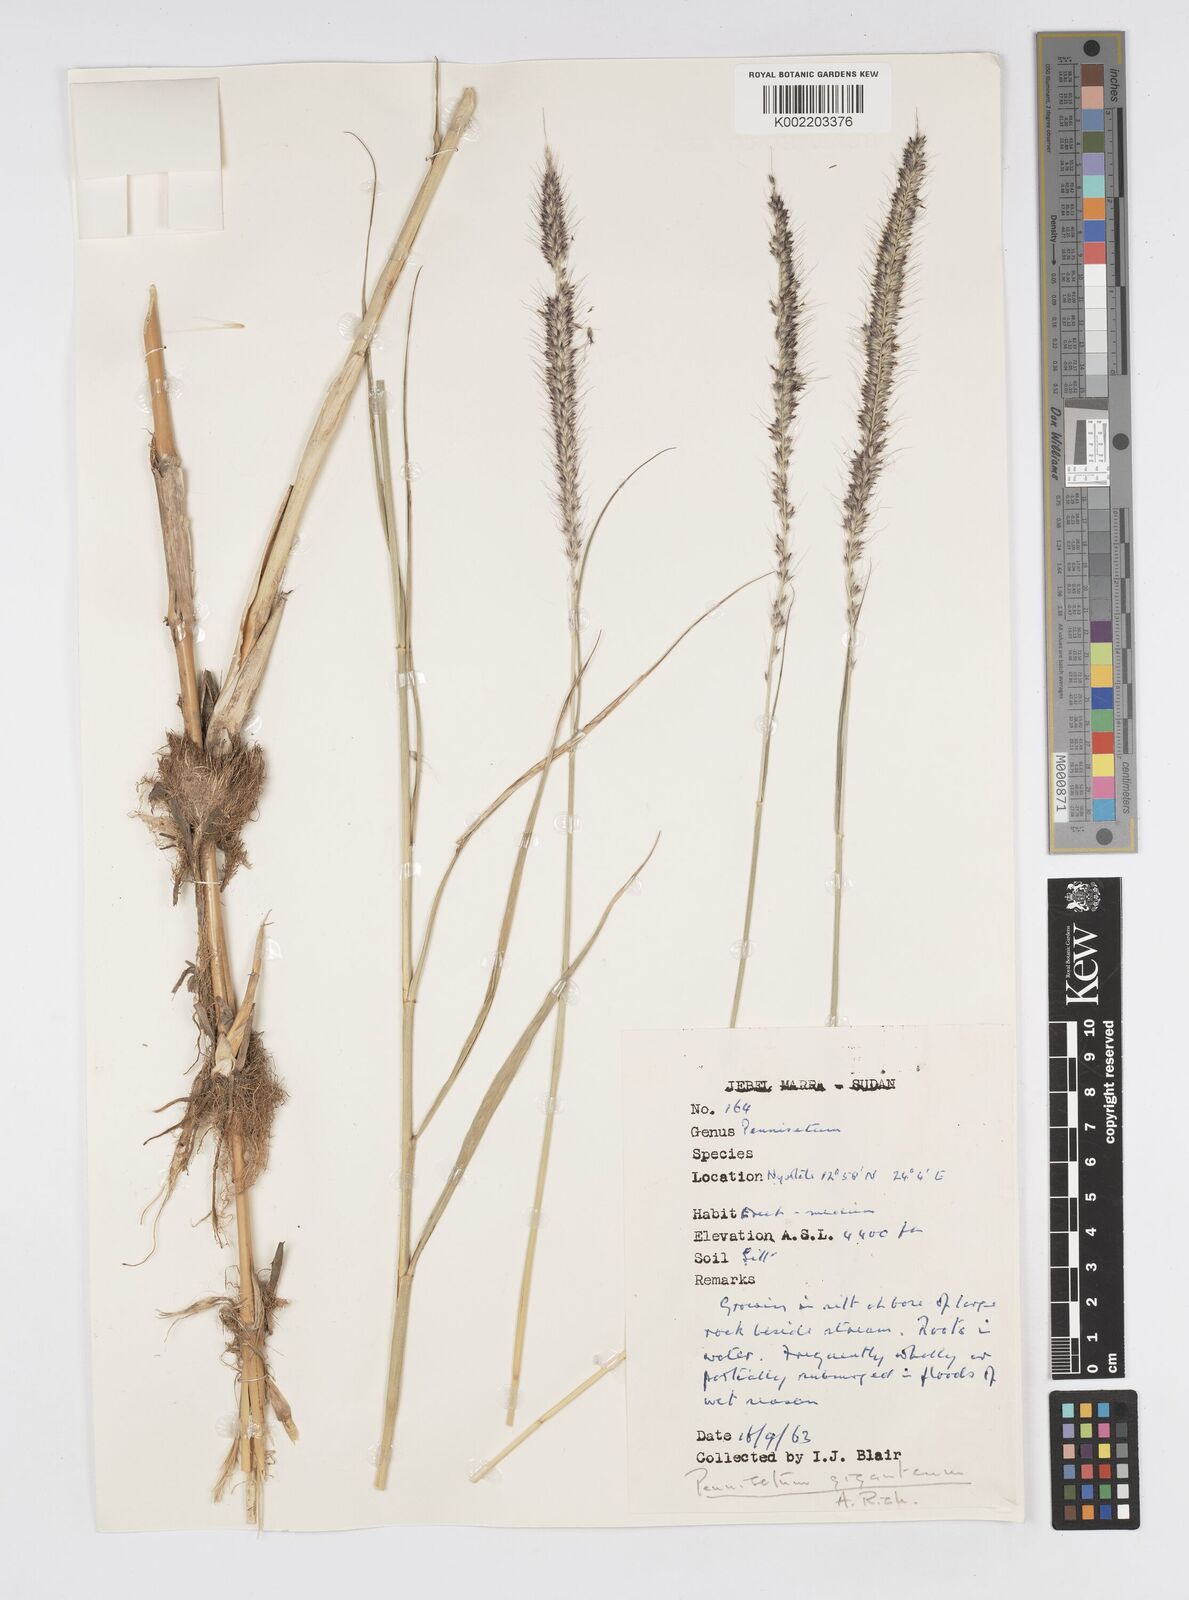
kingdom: Plantae
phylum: Tracheophyta
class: Liliopsida
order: Poales
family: Poaceae
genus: Cenchrus
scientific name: Cenchrus caudatus
